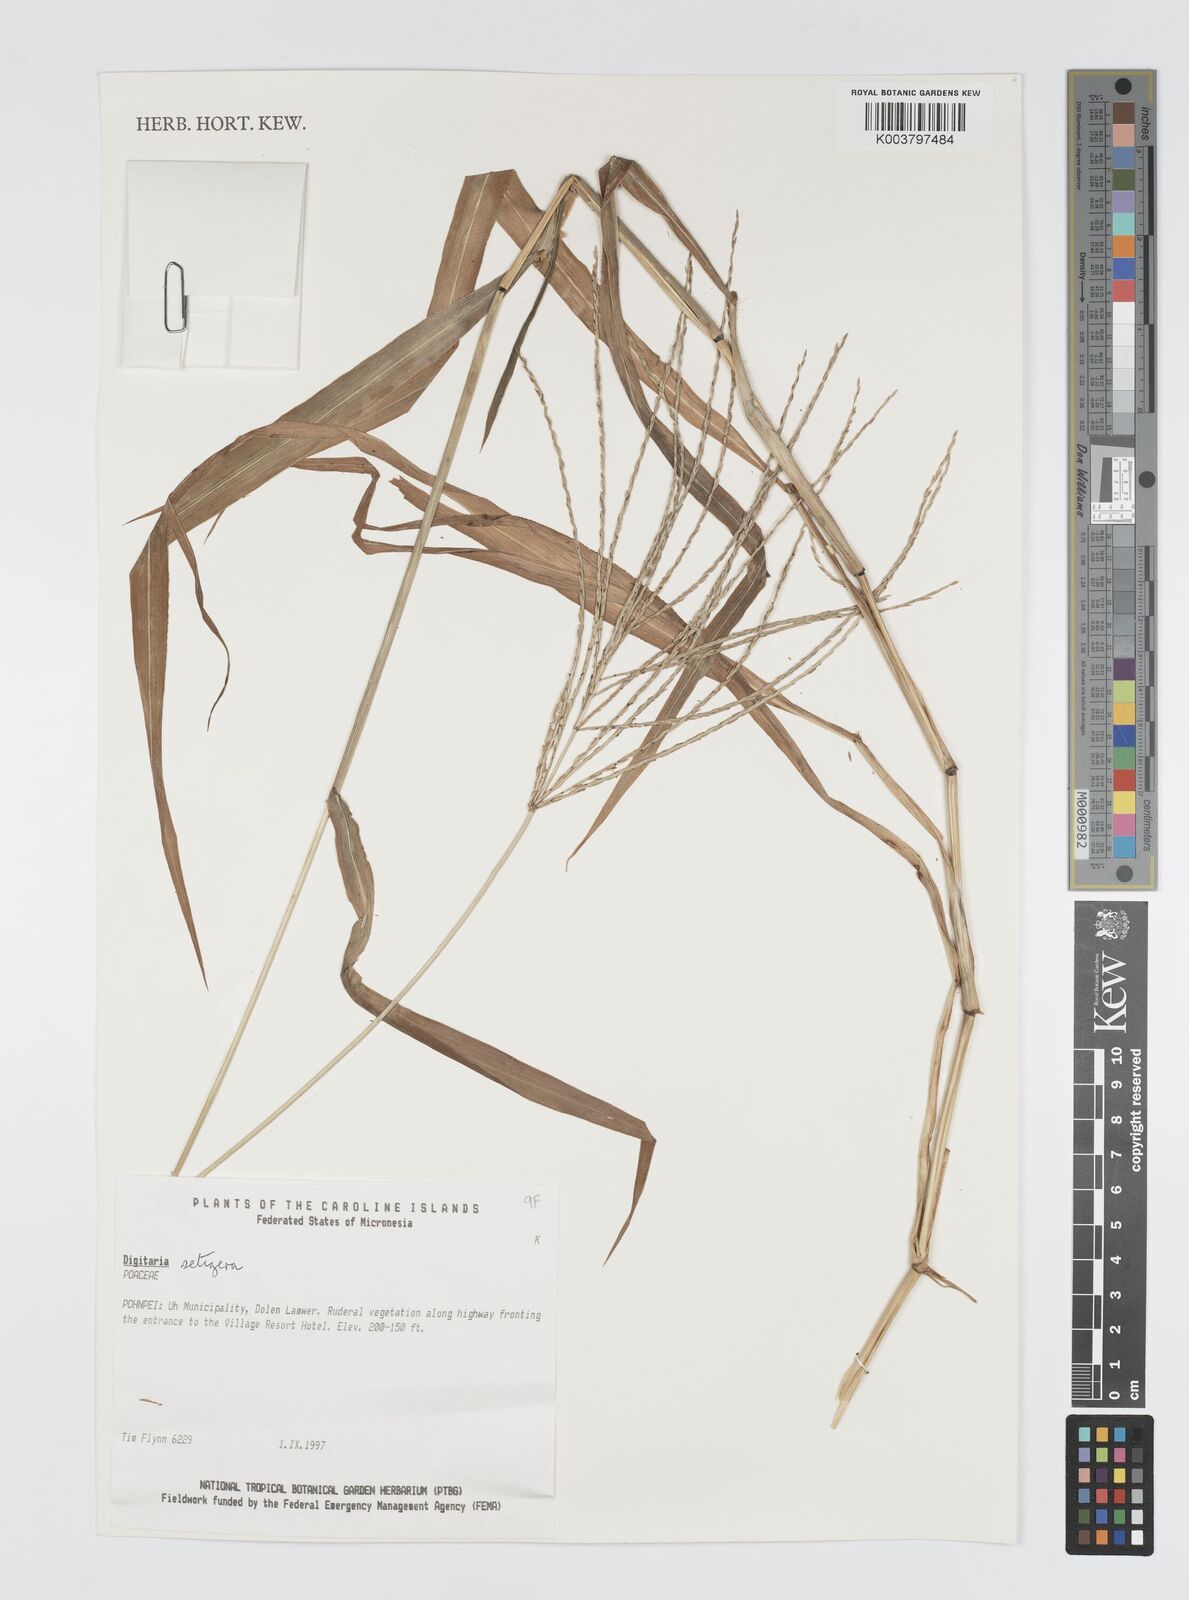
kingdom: Plantae
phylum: Tracheophyta
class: Liliopsida
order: Poales
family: Poaceae
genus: Digitaria
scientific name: Digitaria setigera
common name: East indian crabgrass
